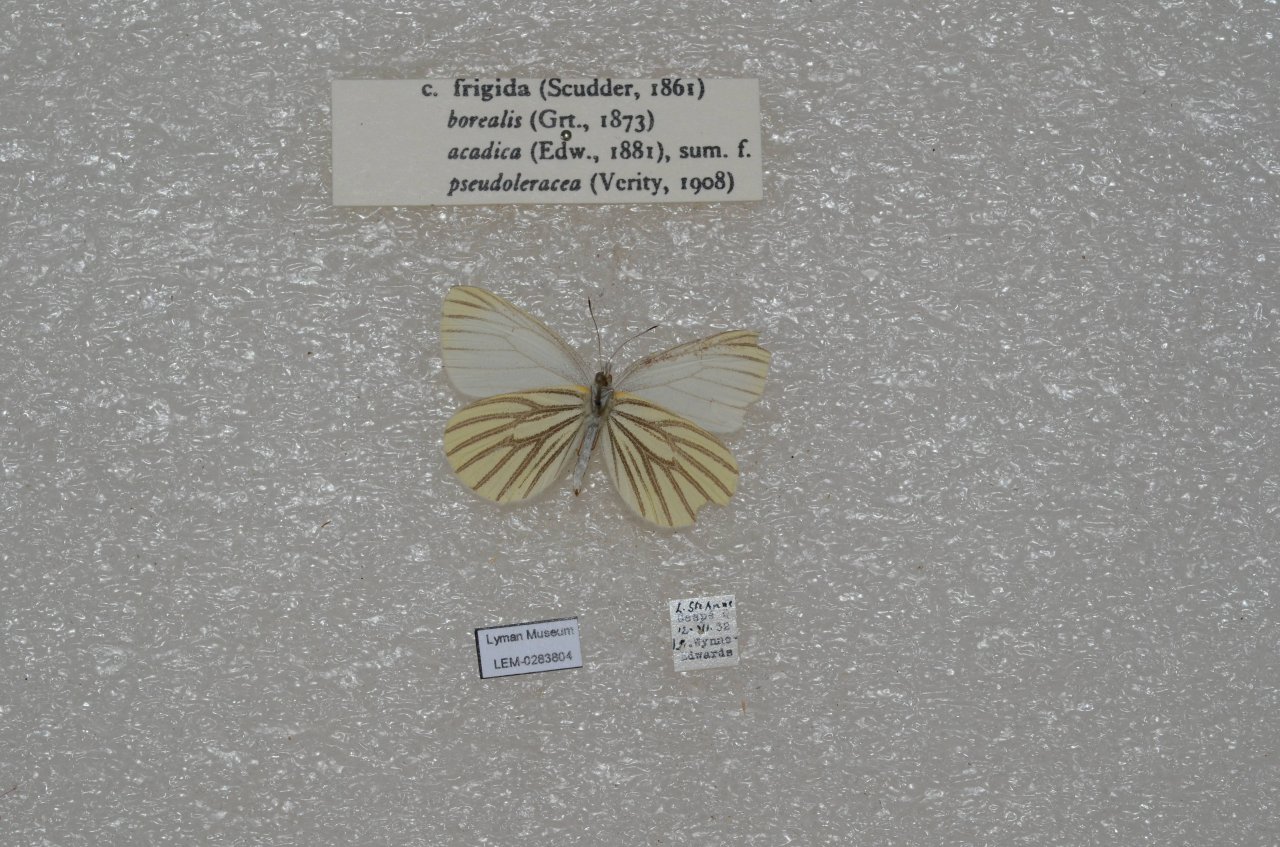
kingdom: Animalia
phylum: Arthropoda
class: Insecta
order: Lepidoptera
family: Pieridae
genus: Pieris
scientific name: Pieris oleracea
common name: Mustard White
